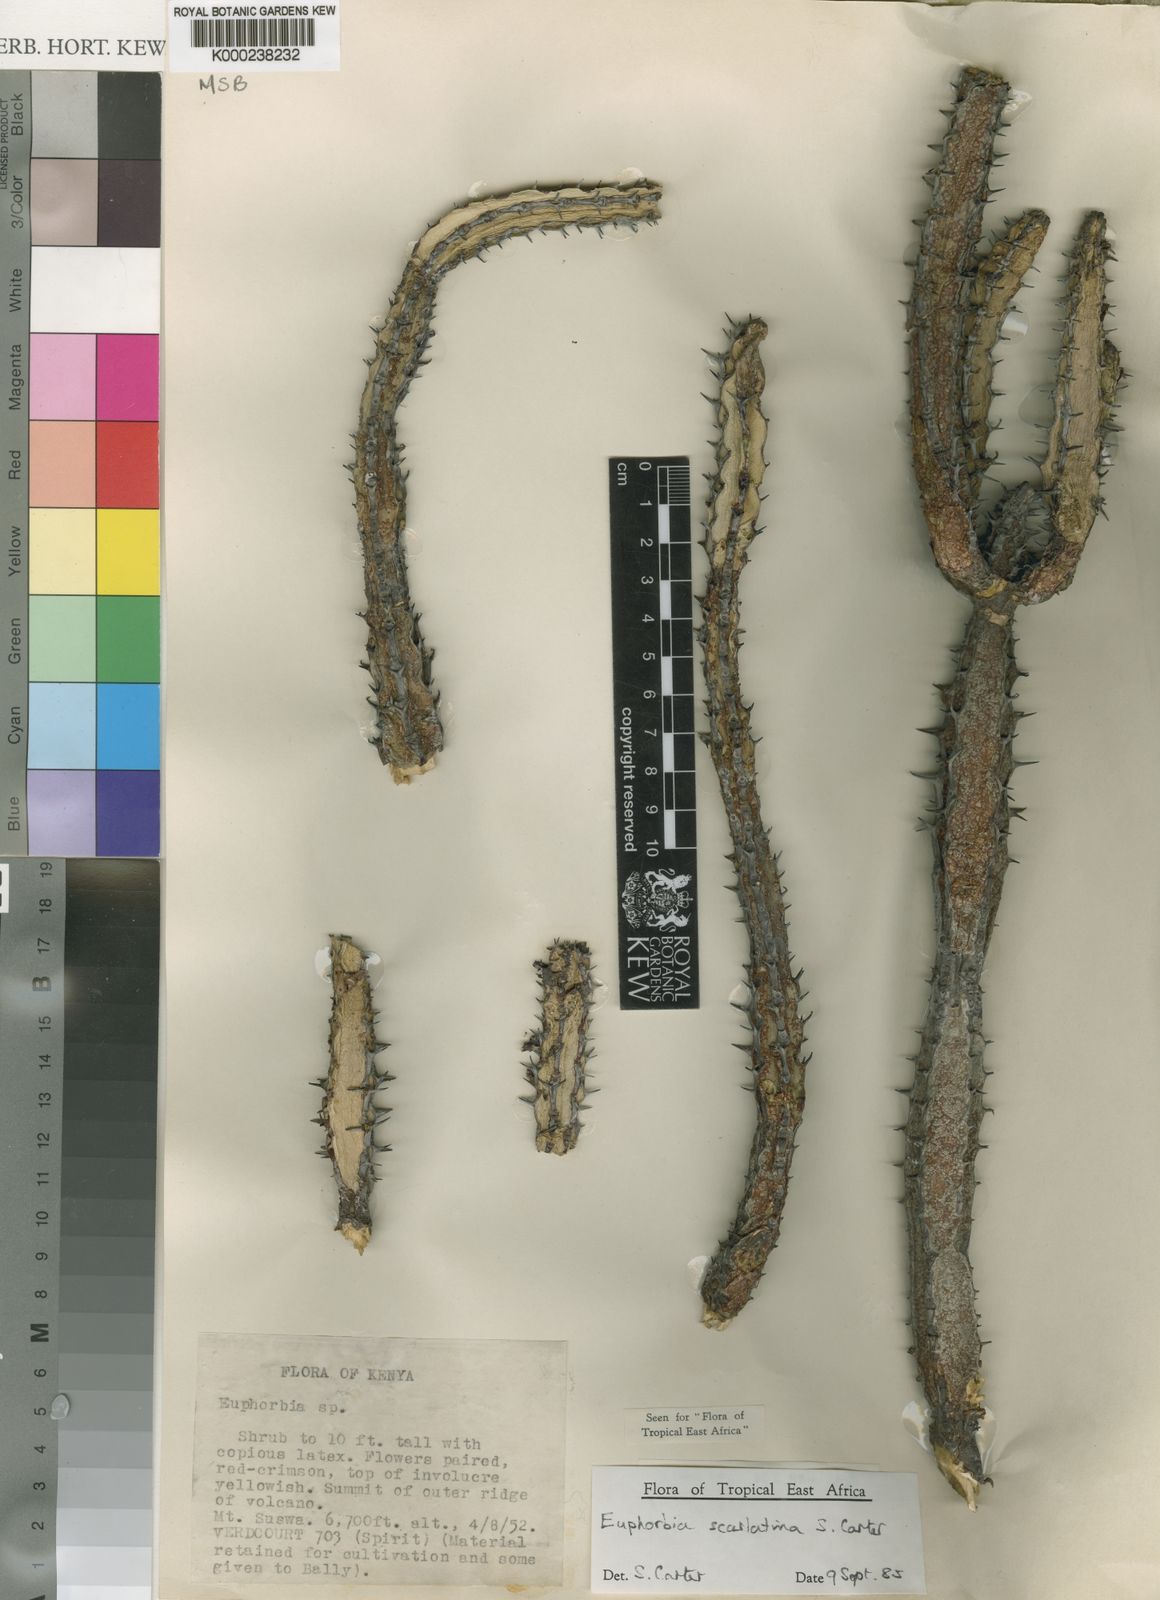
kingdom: Plantae
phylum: Tracheophyta
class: Magnoliopsida
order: Malpighiales
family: Euphorbiaceae
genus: Euphorbia
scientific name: Euphorbia scarlatina
